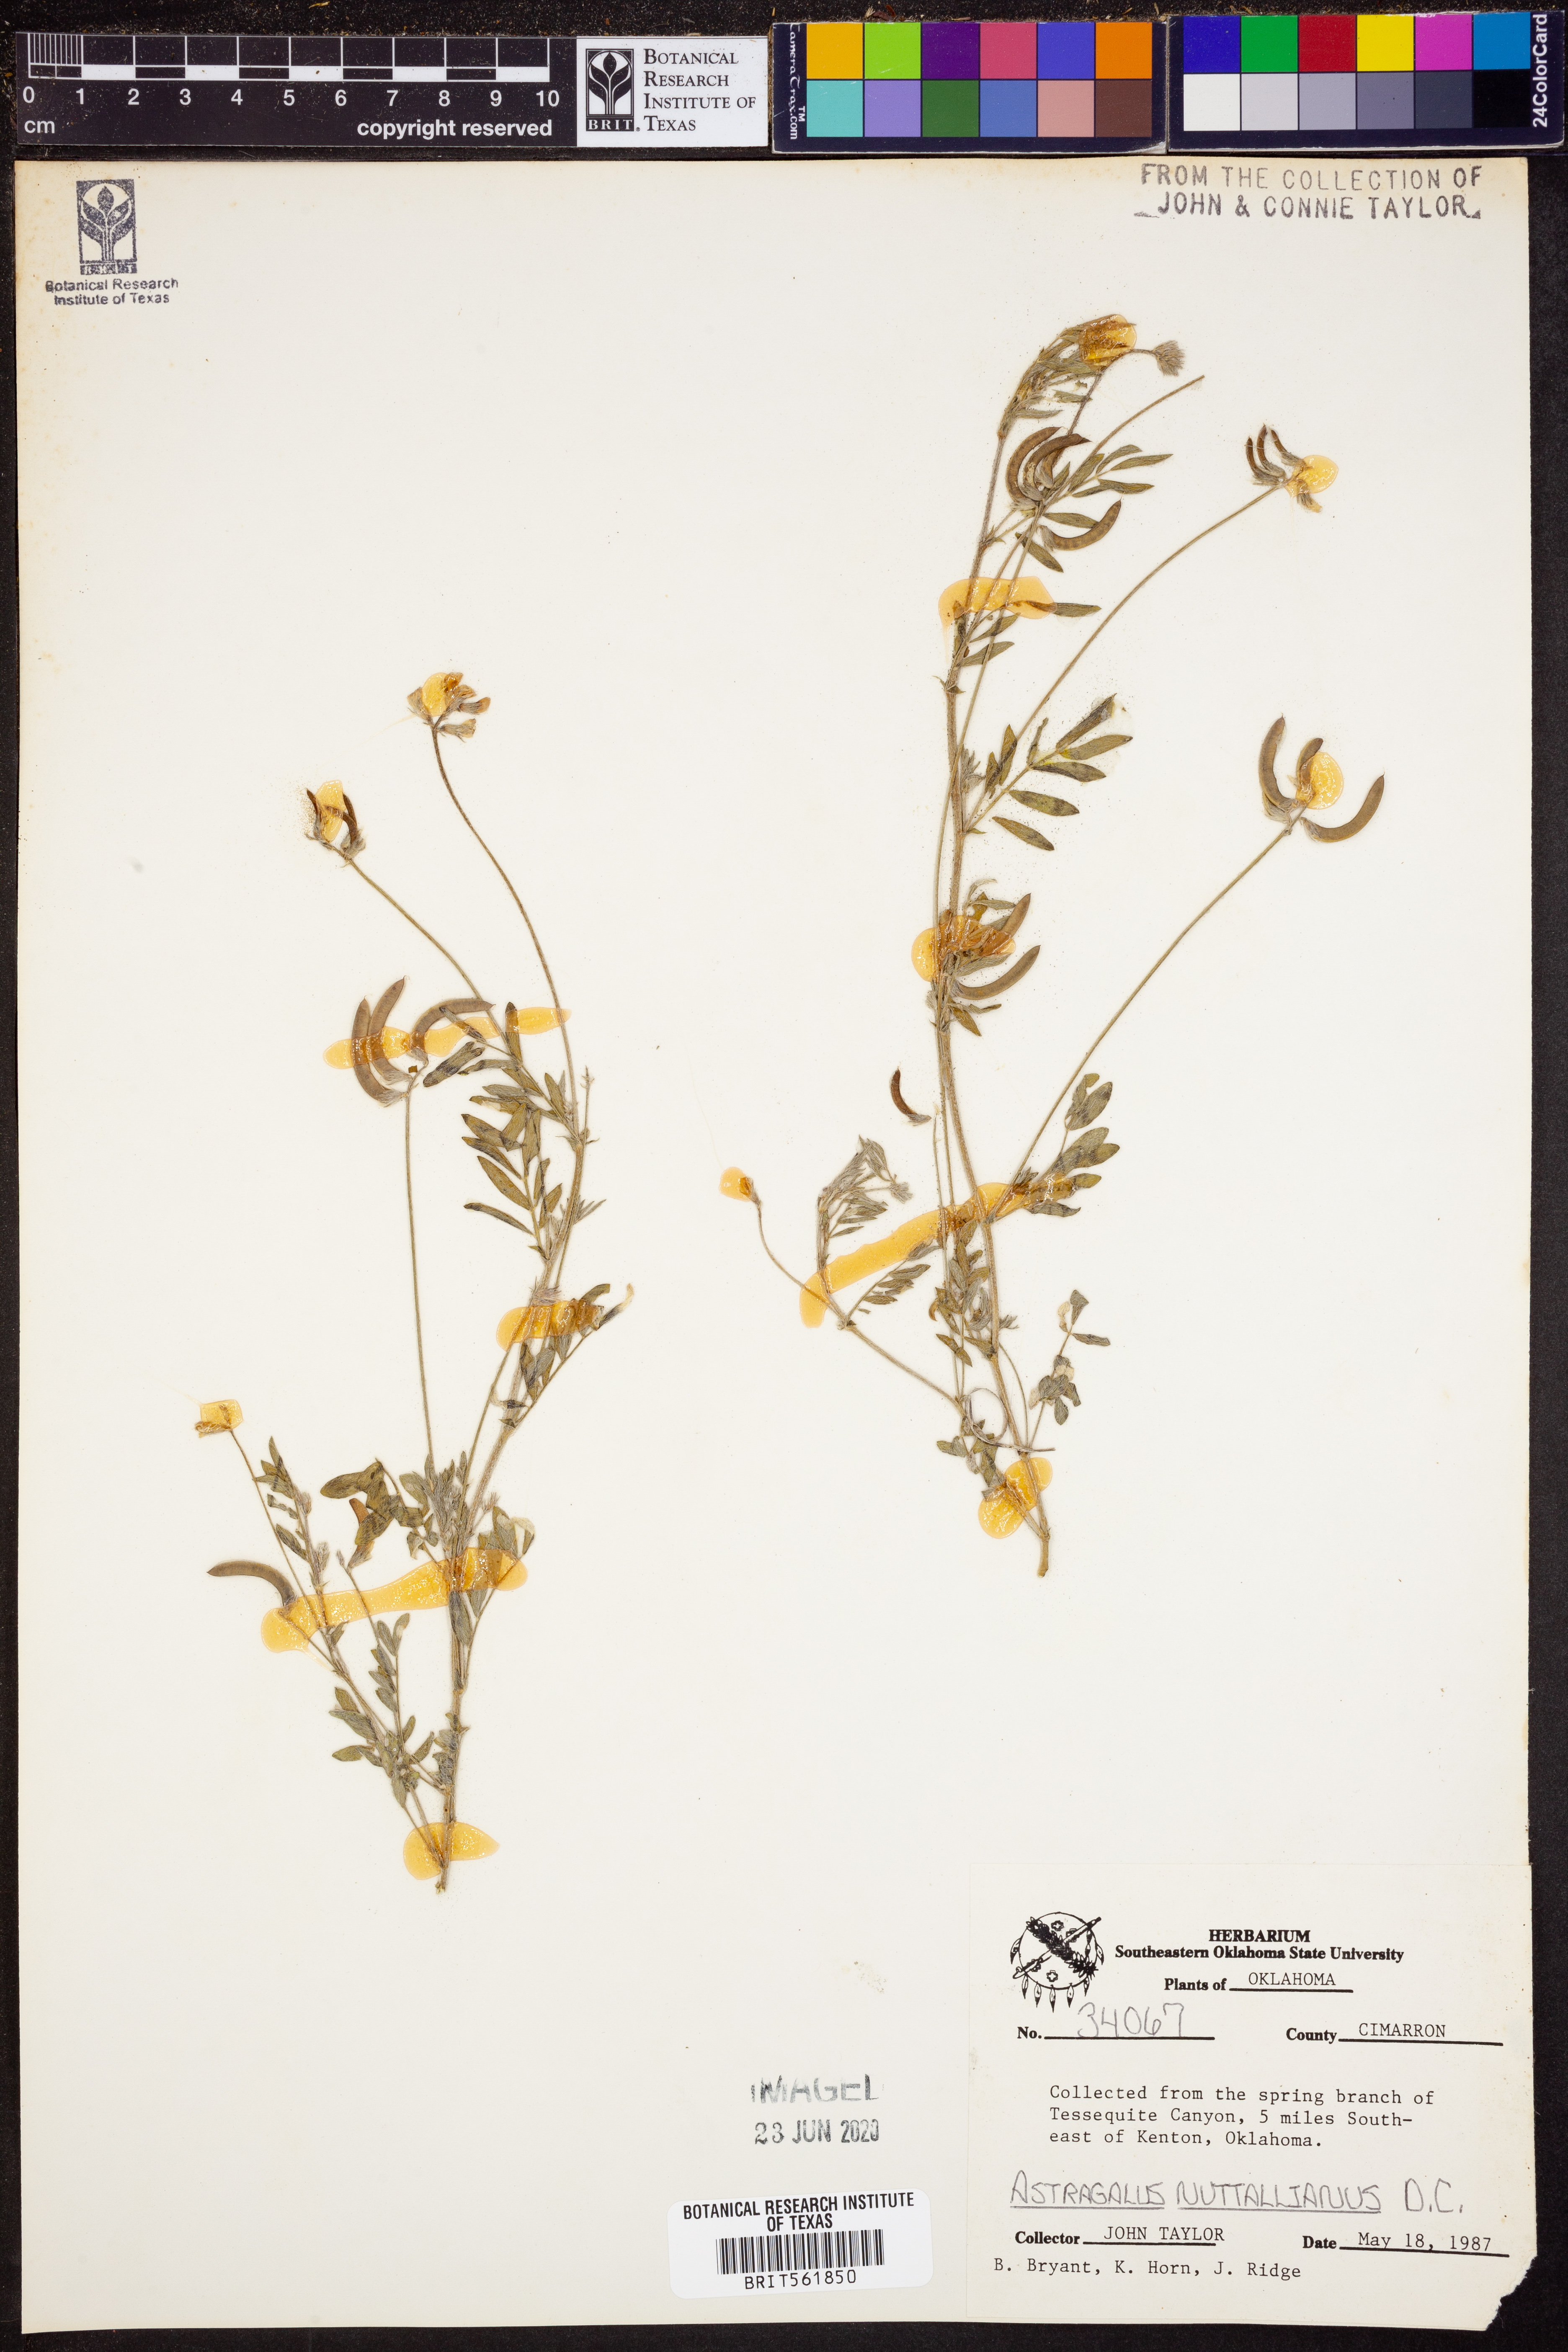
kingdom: Plantae
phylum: Tracheophyta
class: Magnoliopsida
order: Fabales
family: Fabaceae
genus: Astragalus
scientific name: Astragalus nuttallianus
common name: Smallflowered milkvetch
